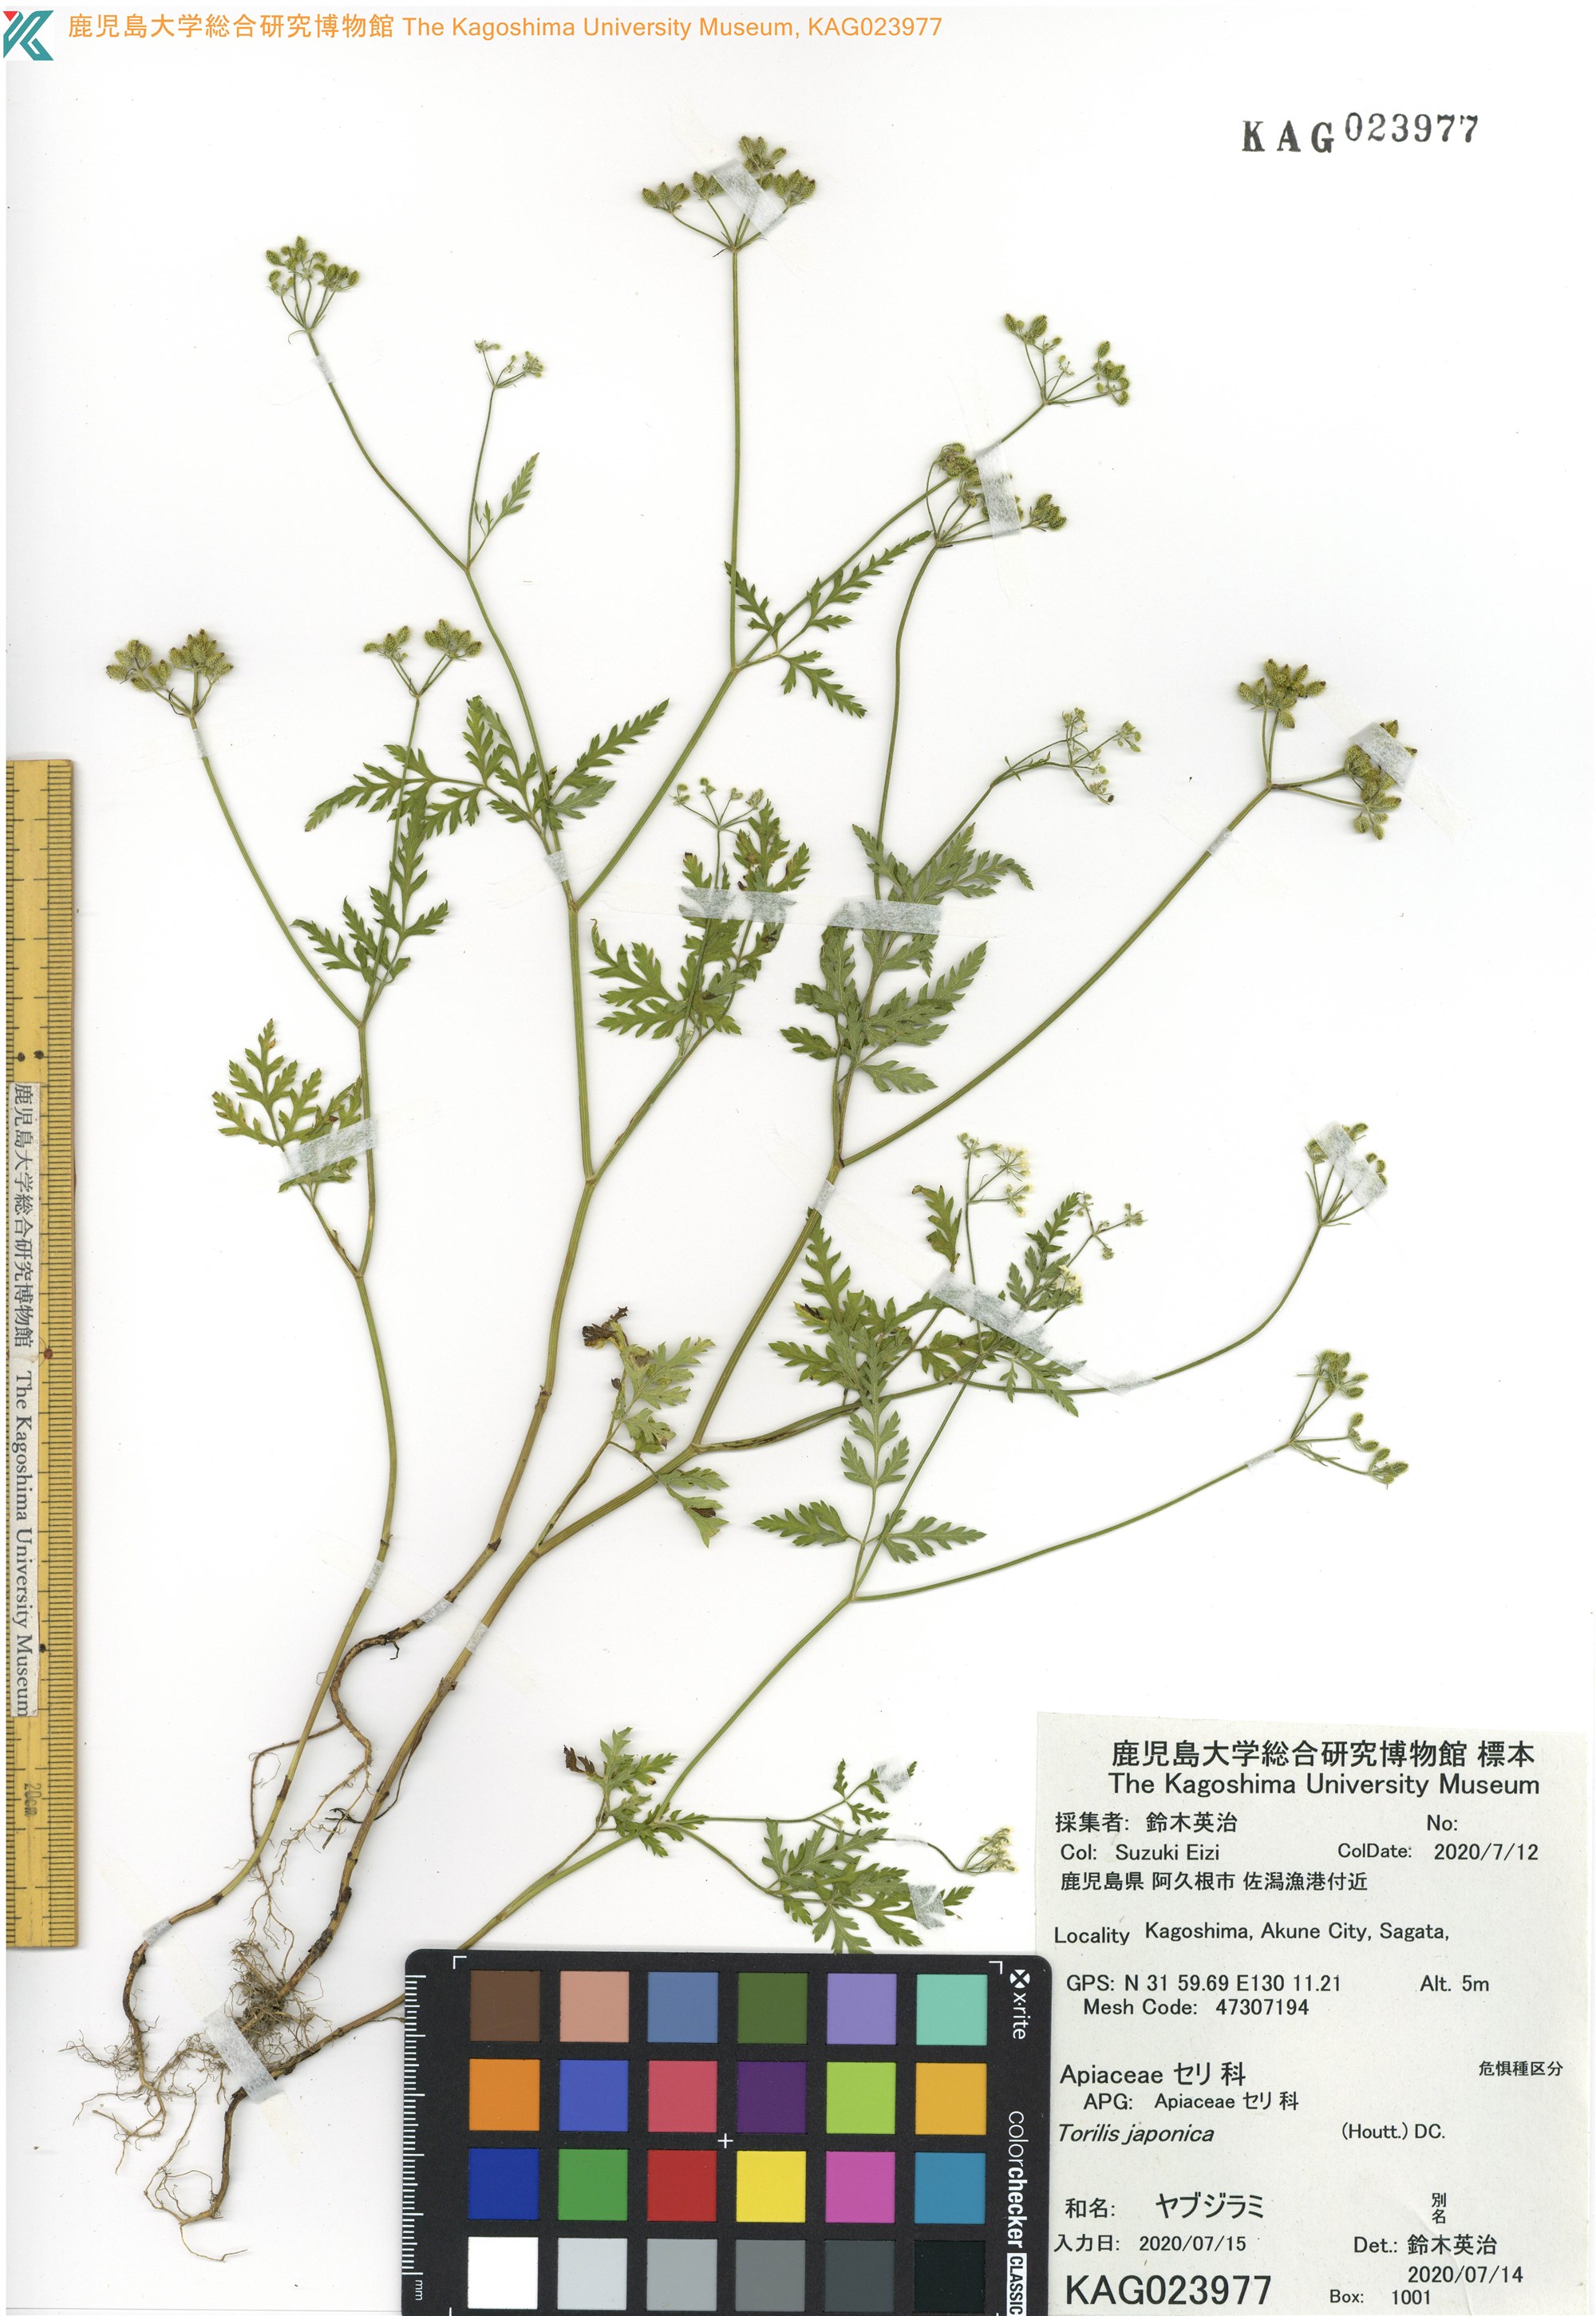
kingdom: Plantae
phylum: Tracheophyta
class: Magnoliopsida
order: Apiales
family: Apiaceae
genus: Torilis
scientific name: Torilis japonica
